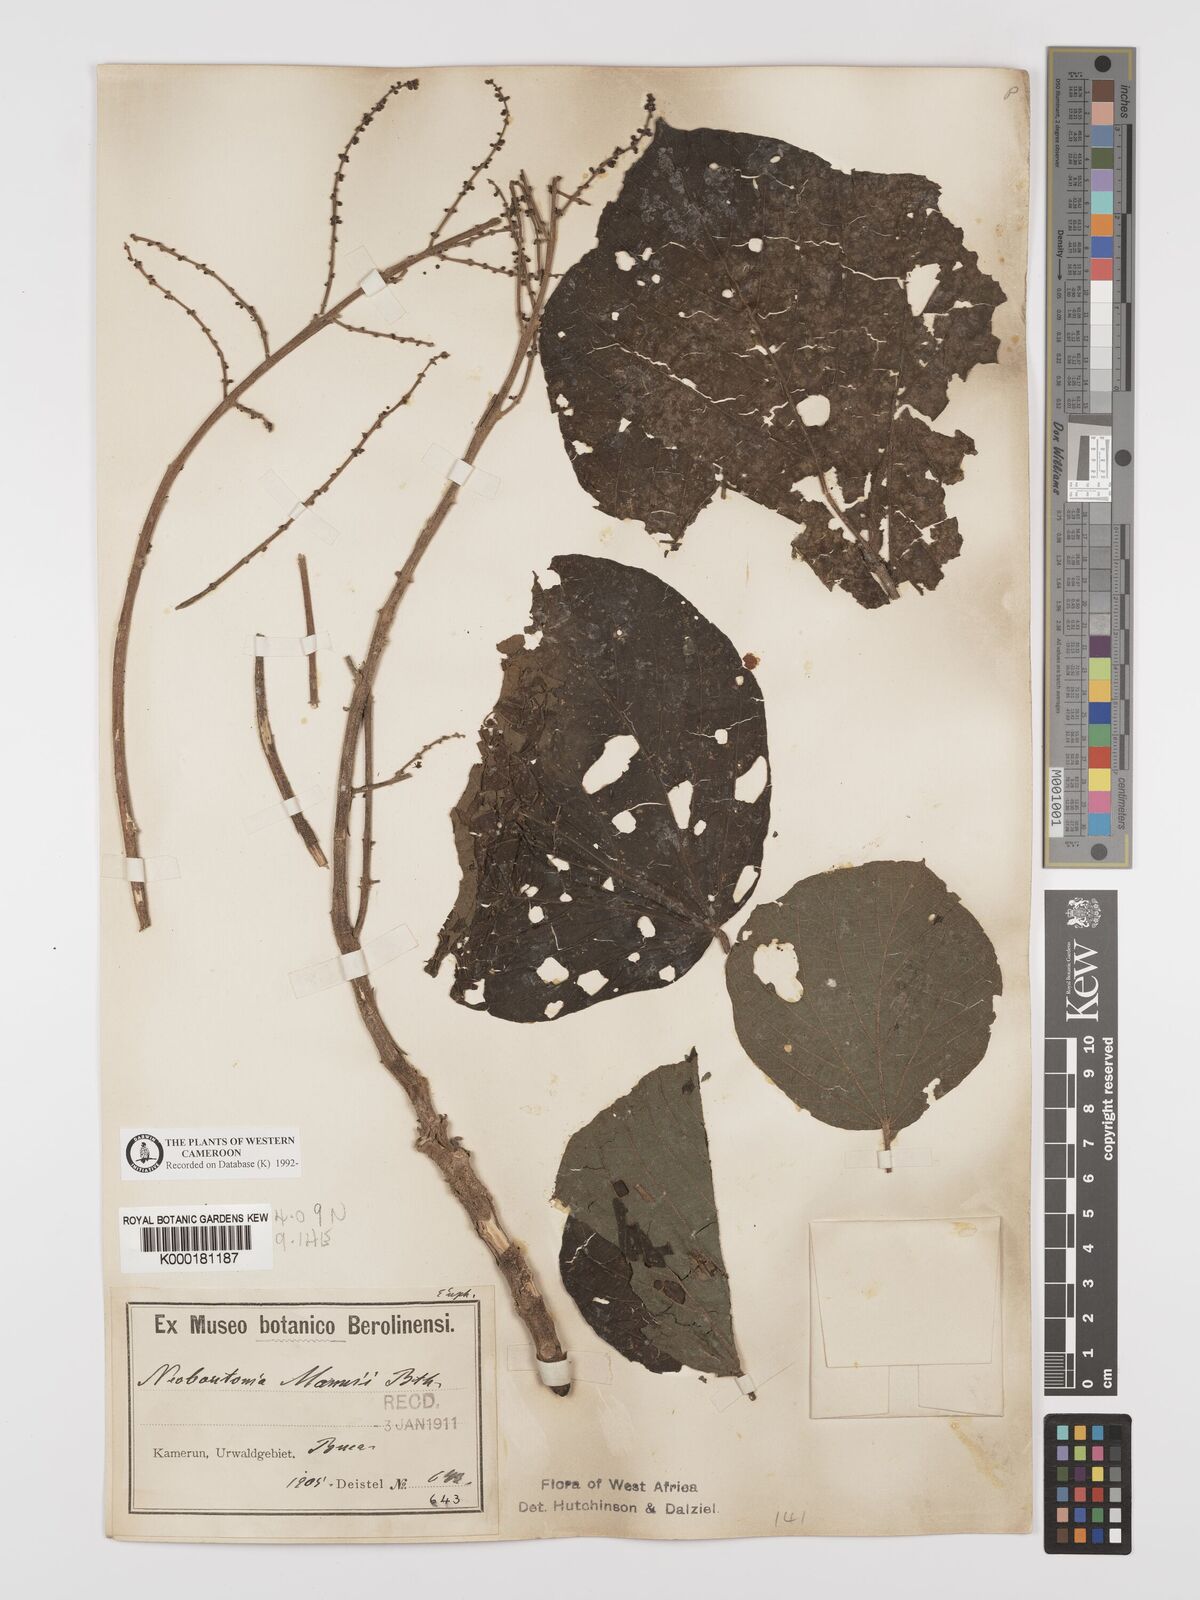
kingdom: Plantae
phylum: Tracheophyta
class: Magnoliopsida
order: Malpighiales
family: Euphorbiaceae
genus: Neoboutonia
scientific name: Neoboutonia mannii
